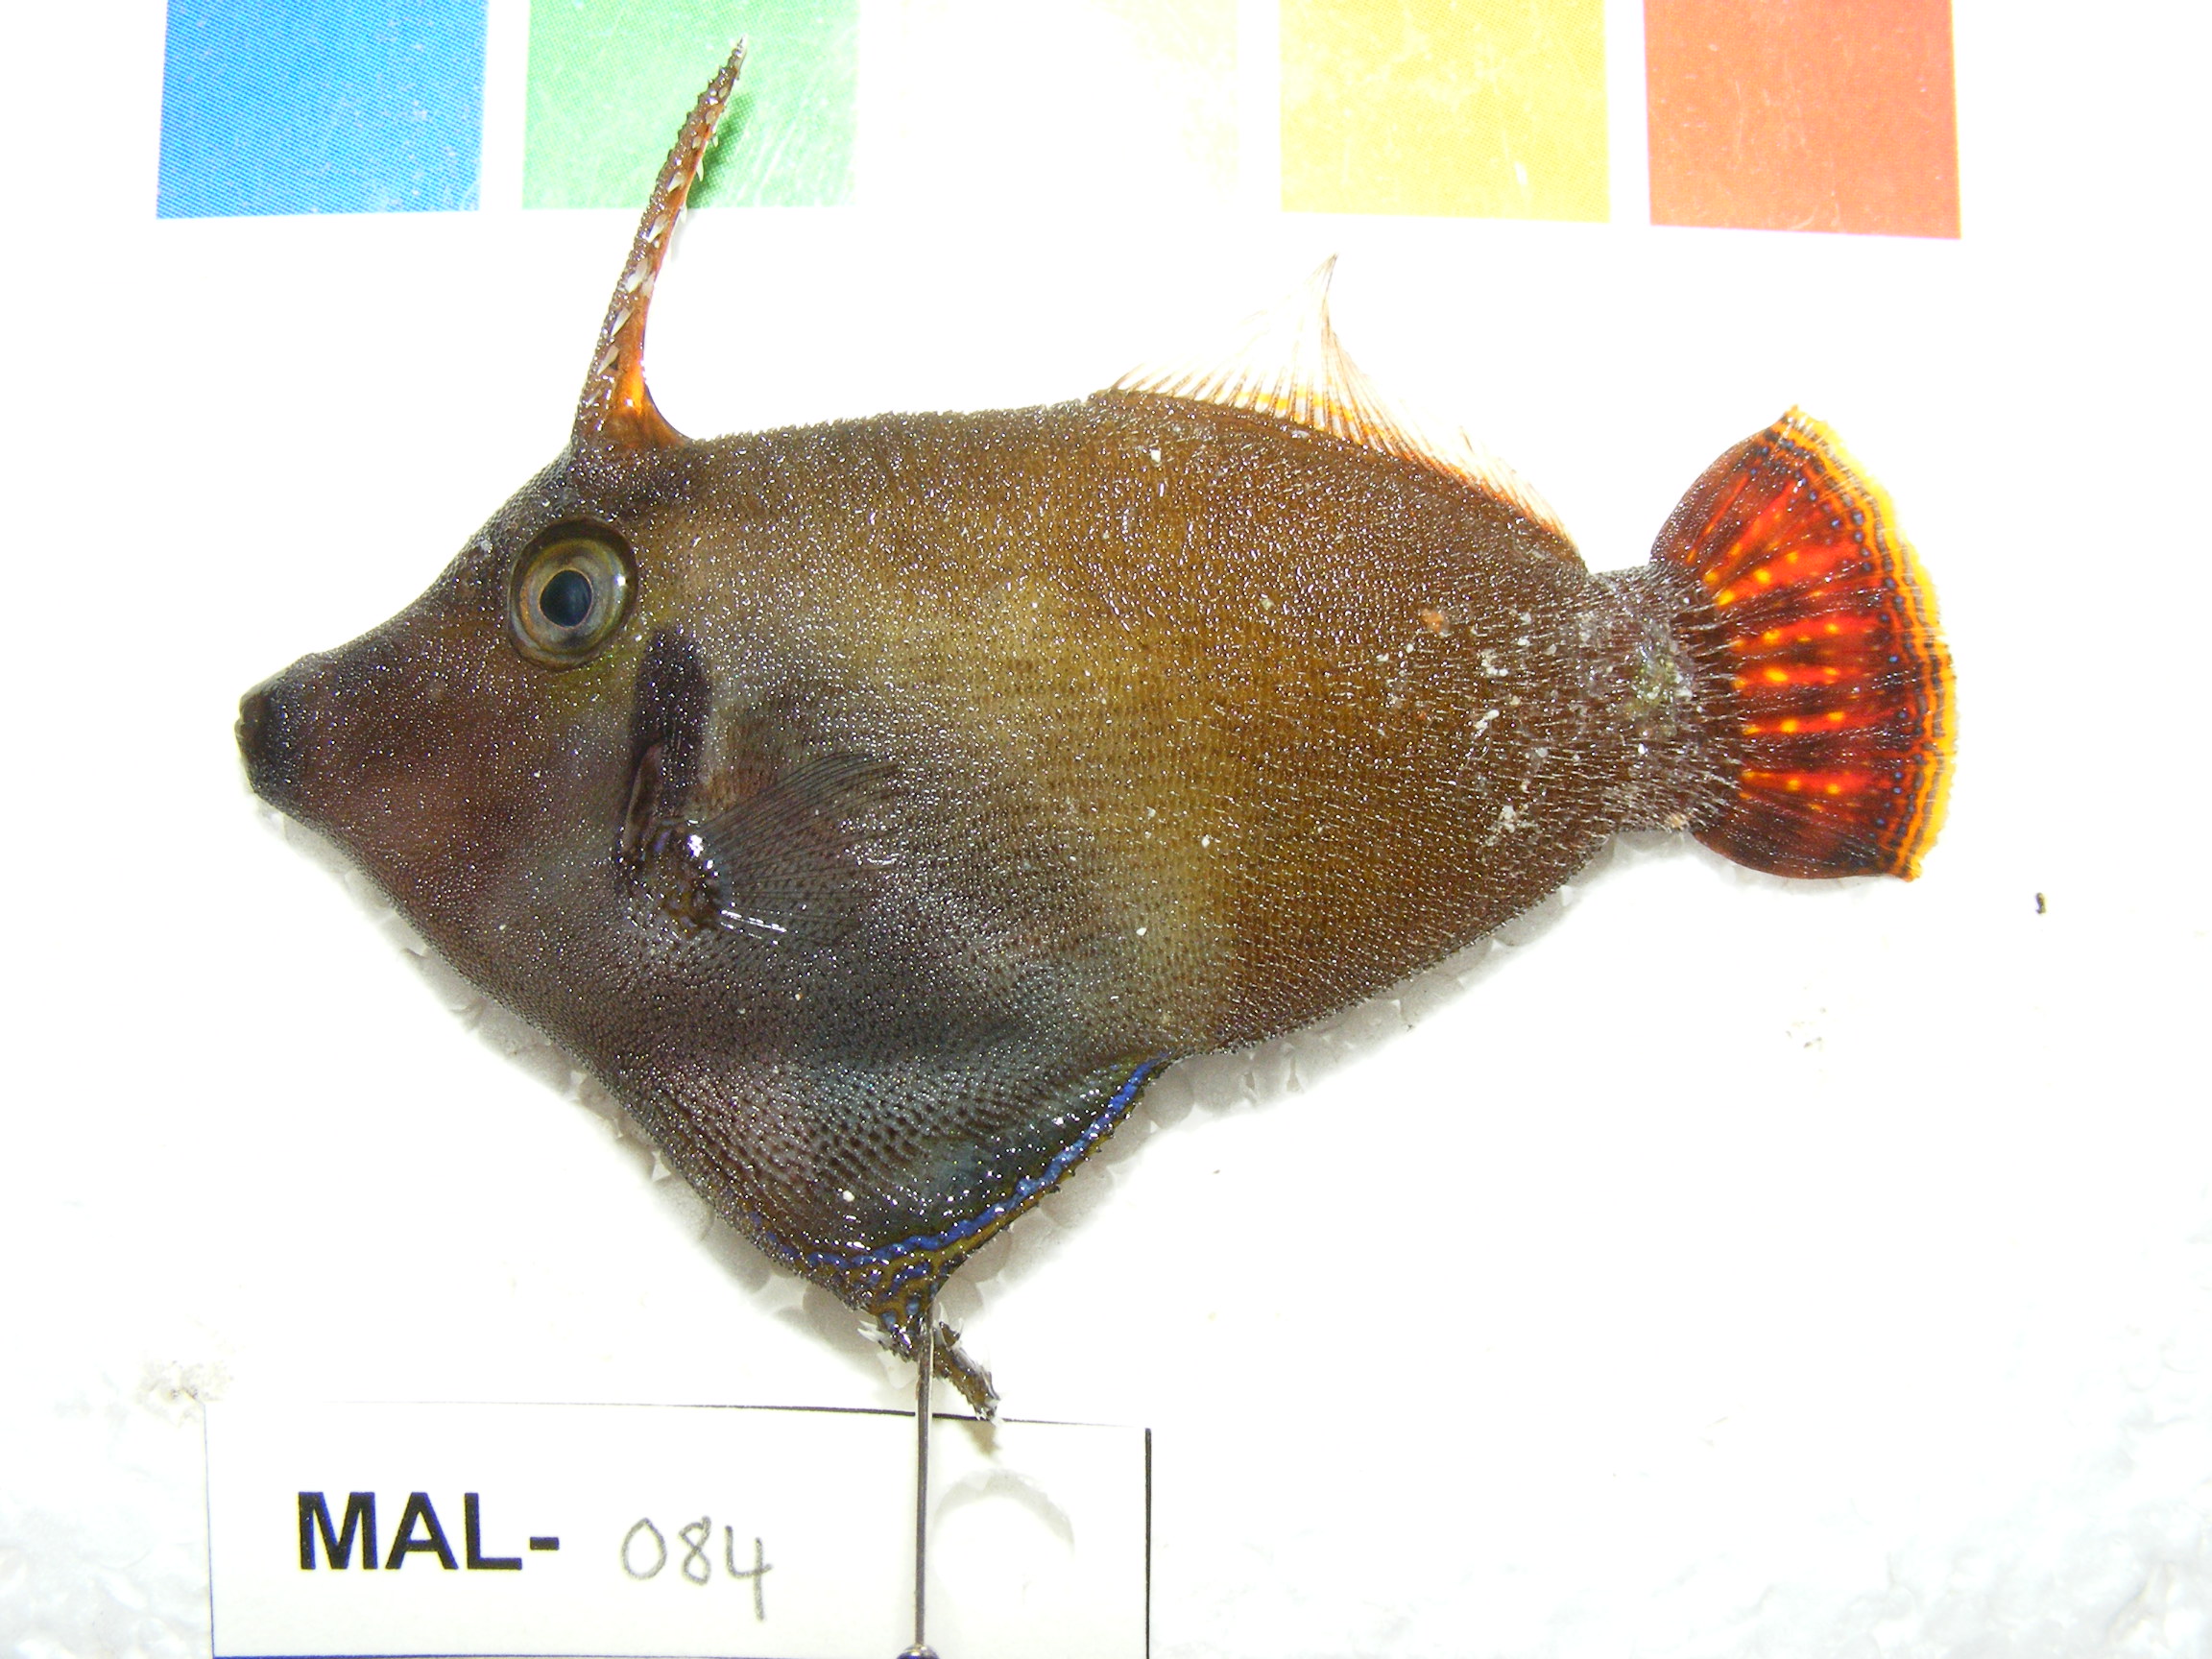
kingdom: Animalia
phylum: Chordata
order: Tetraodontiformes
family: Monacanthidae
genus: Pervagor
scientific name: Pervagor janthinosoma
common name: Blackbar filefish
